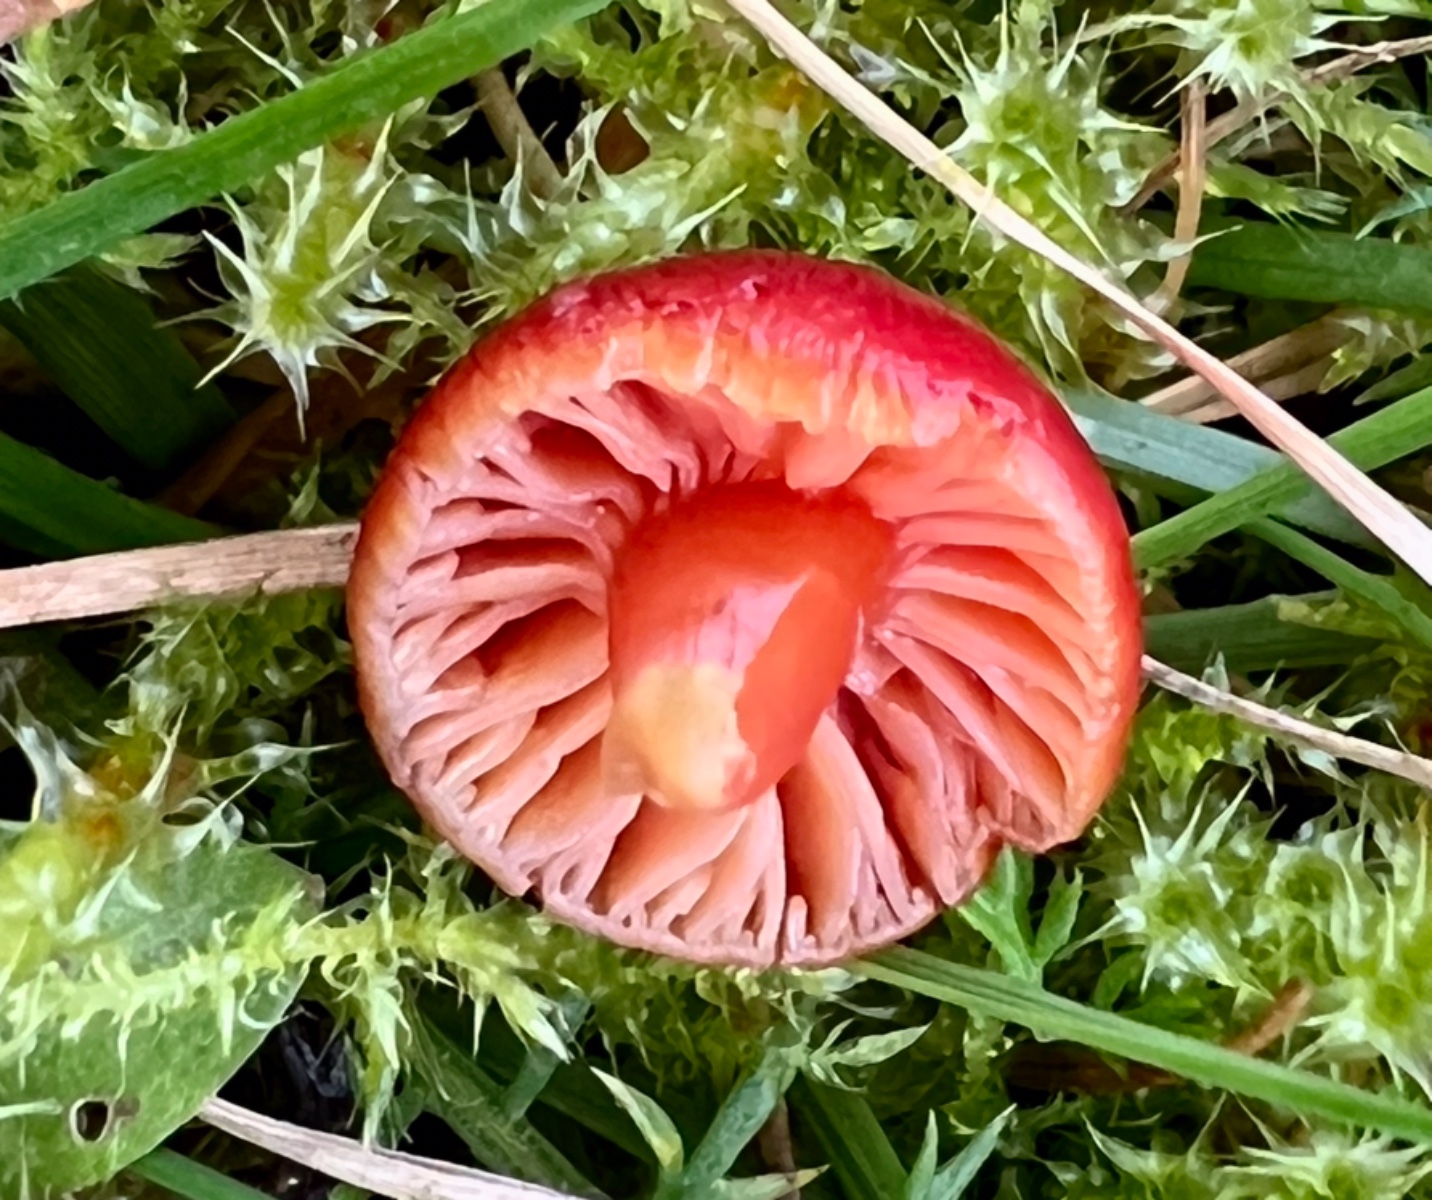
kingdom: Fungi
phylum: Basidiomycota
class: Agaricomycetes
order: Agaricales
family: Hygrophoraceae
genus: Hygrocybe
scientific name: Hygrocybe phaeococcinea
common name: sortdugget vokshat
